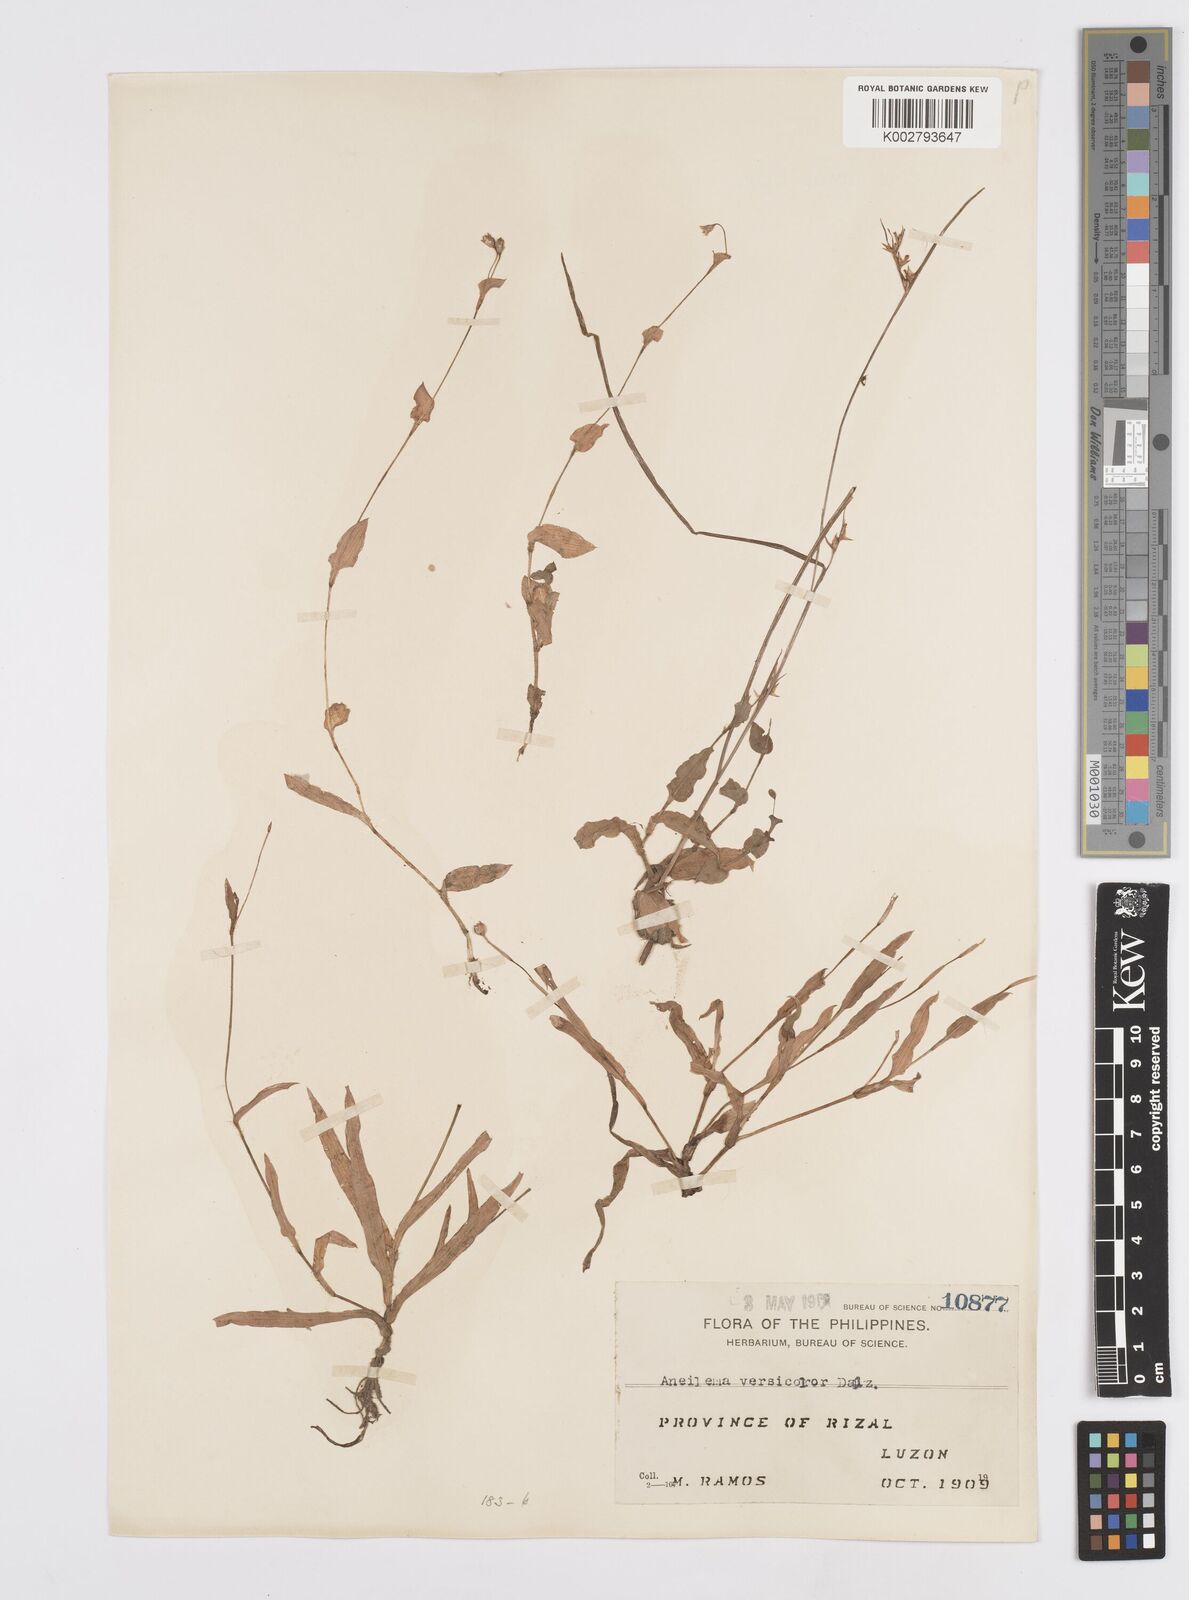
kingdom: Plantae
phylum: Tracheophyta
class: Liliopsida
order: Commelinales
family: Commelinaceae
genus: Murdannia
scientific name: Murdannia versicolor
